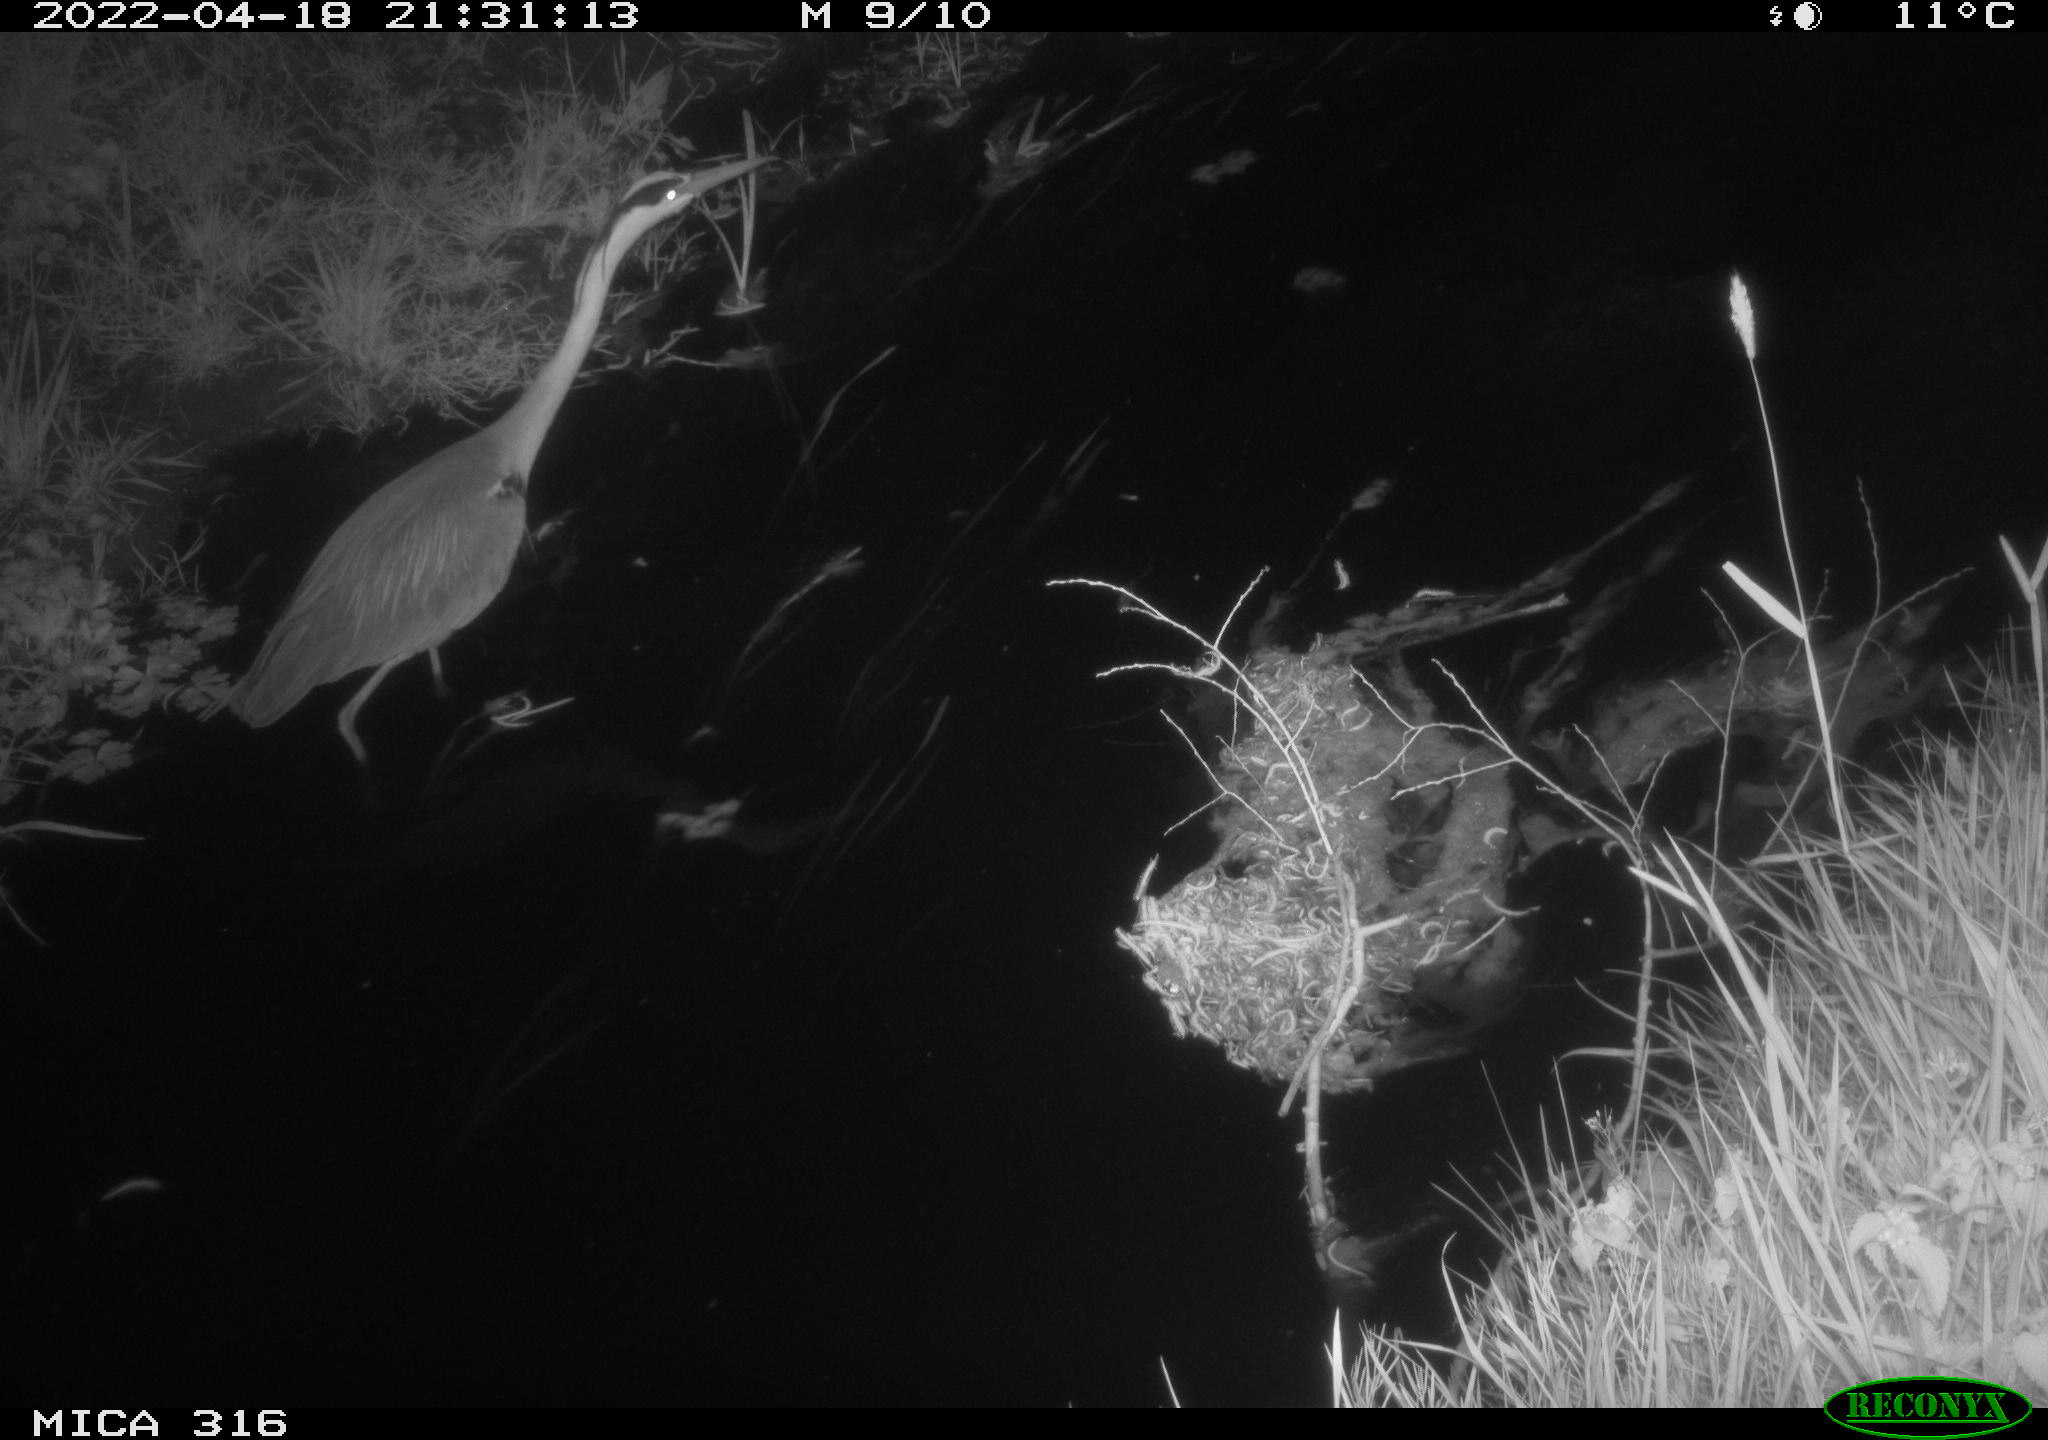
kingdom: Animalia
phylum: Chordata
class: Aves
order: Pelecaniformes
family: Ardeidae
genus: Ardea
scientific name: Ardea
